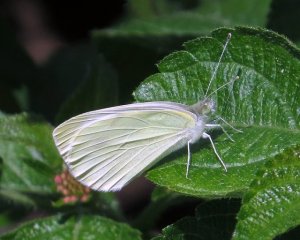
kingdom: Animalia
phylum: Arthropoda
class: Insecta
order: Lepidoptera
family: Pieridae
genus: Pieris
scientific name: Pieris rapae
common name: Cabbage White
